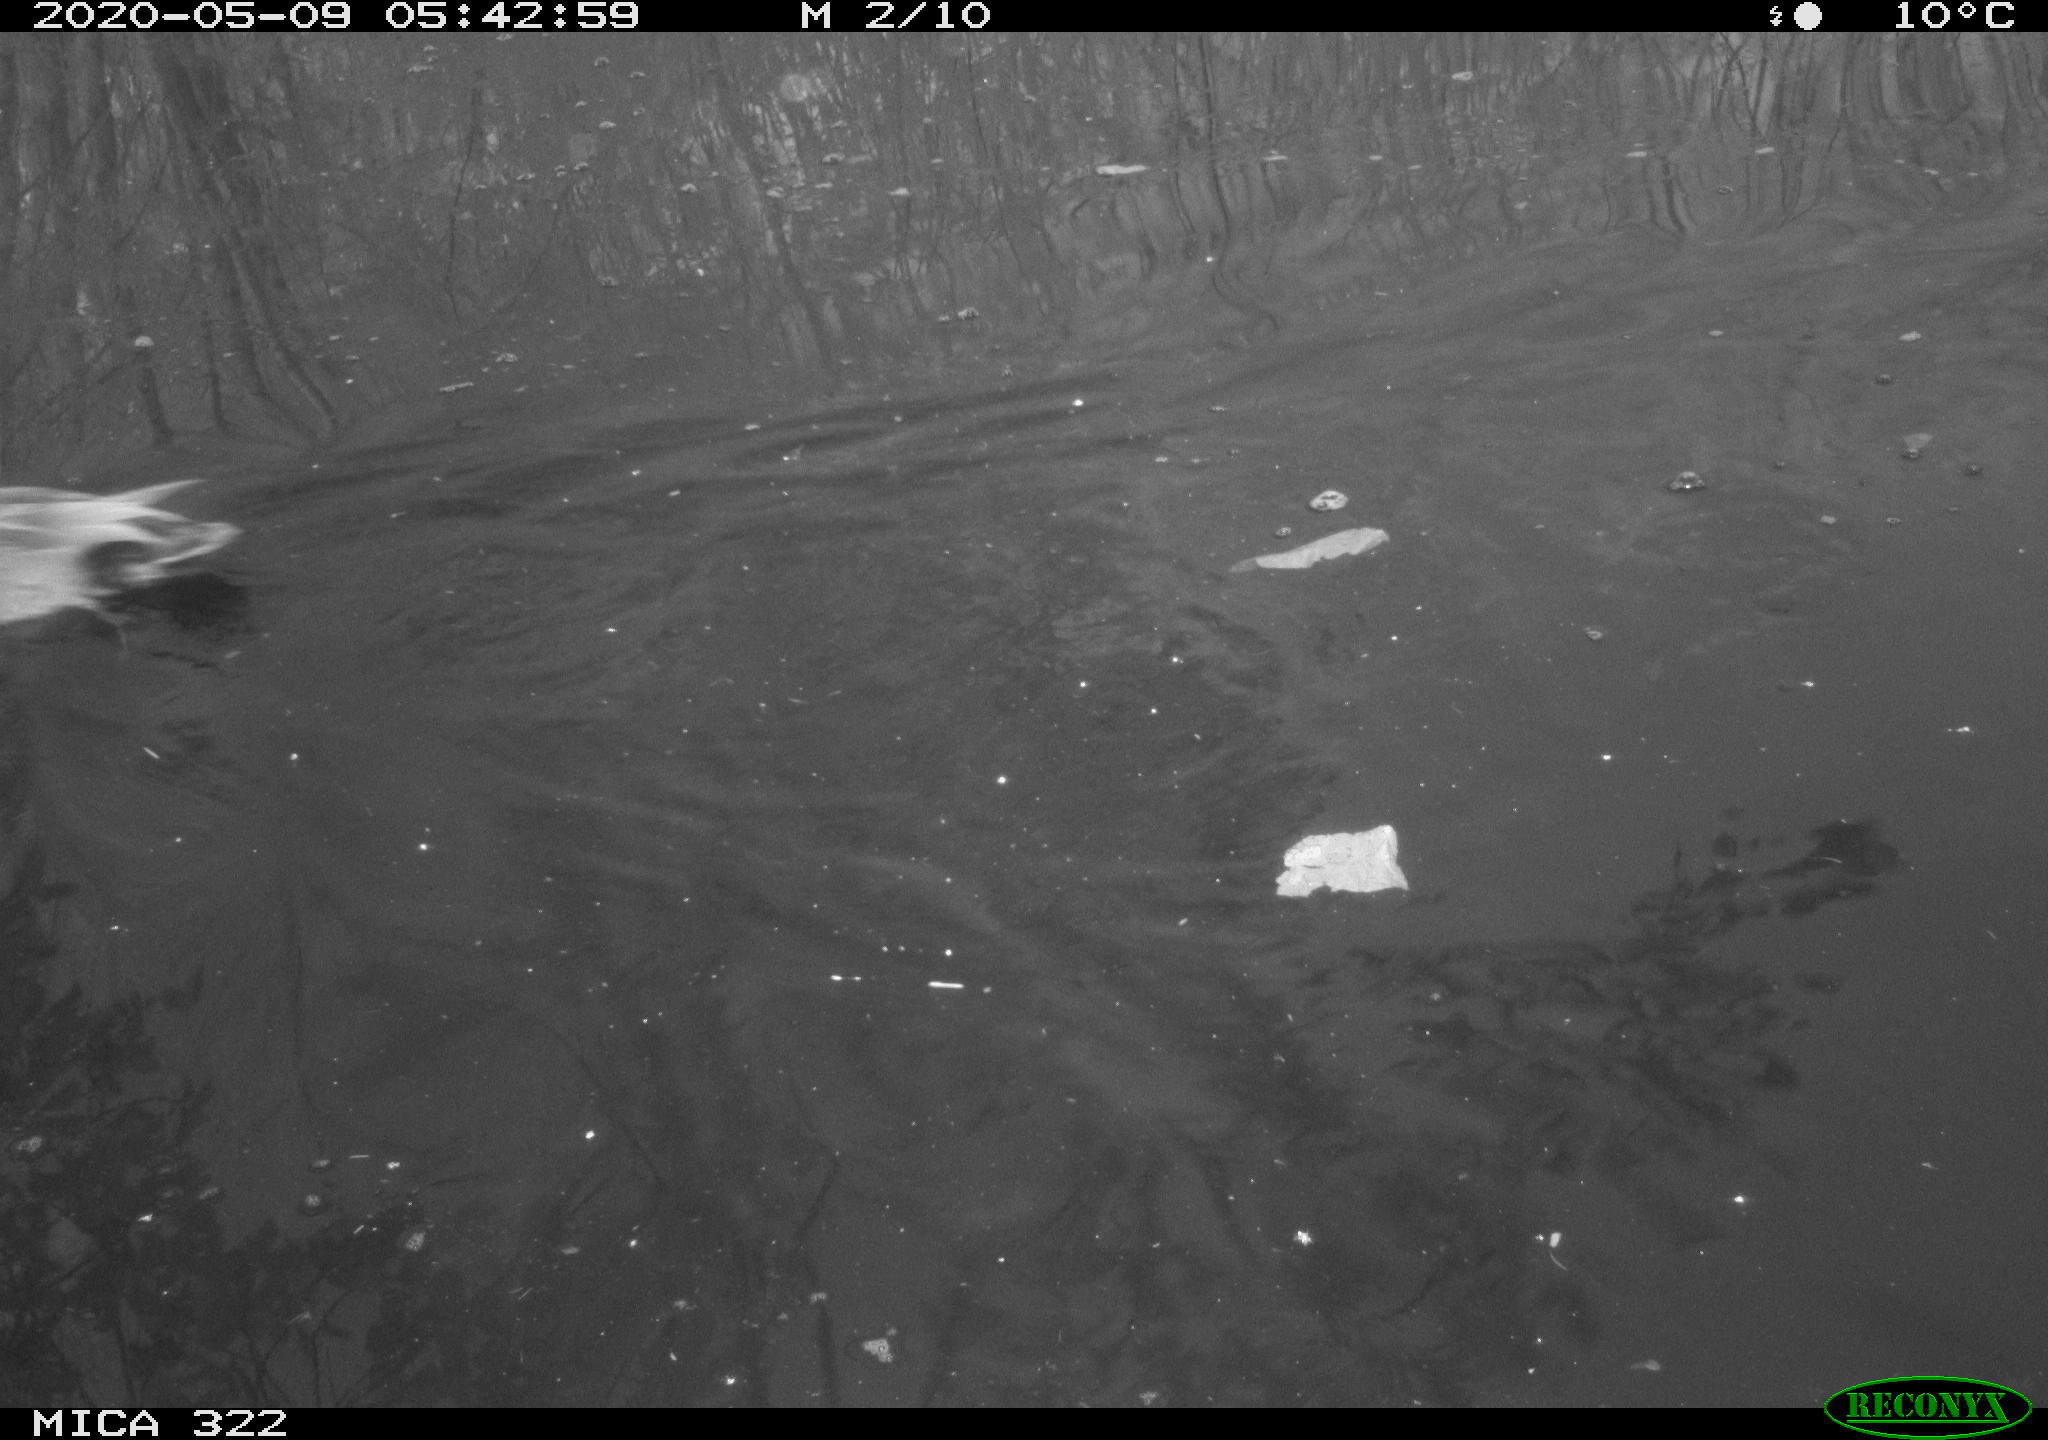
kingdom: Animalia
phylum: Chordata
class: Aves
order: Anseriformes
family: Anatidae
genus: Mareca
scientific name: Mareca strepera
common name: Gadwall
